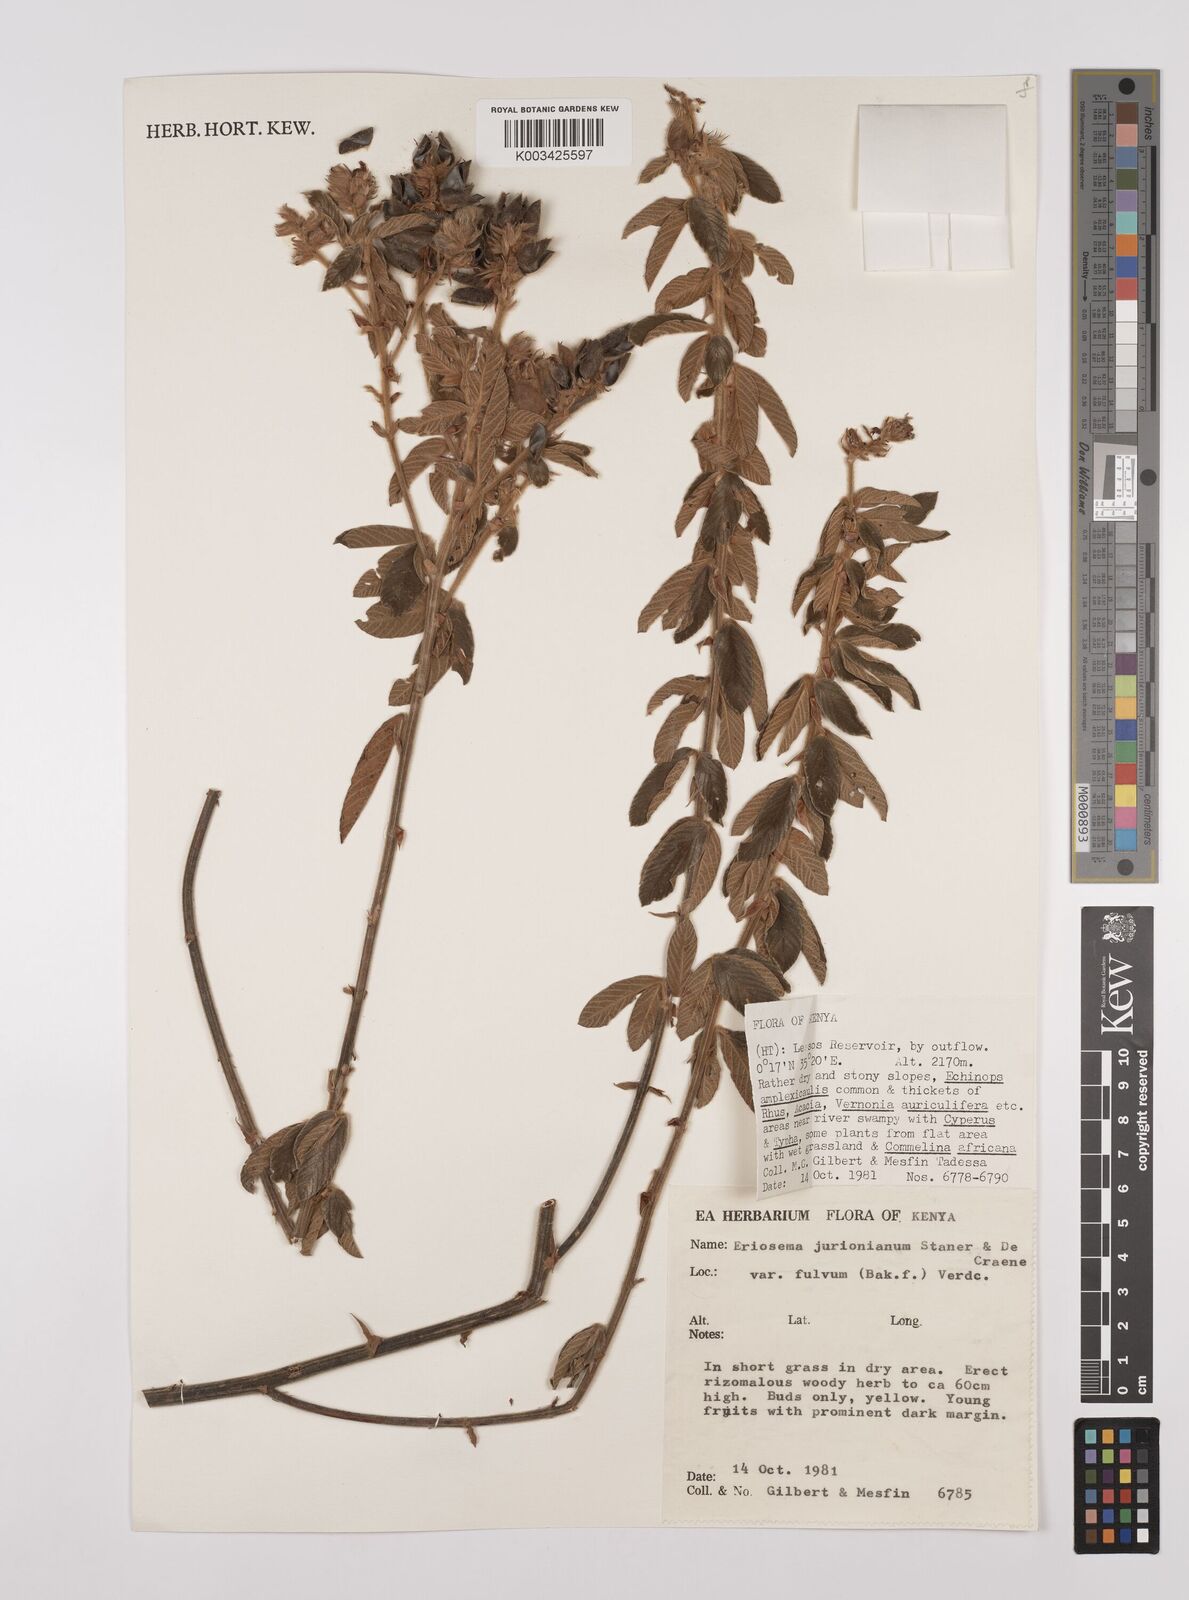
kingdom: Plantae
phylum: Tracheophyta
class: Magnoliopsida
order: Fabales
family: Fabaceae
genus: Eriosema
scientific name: Eriosema jurionianum
